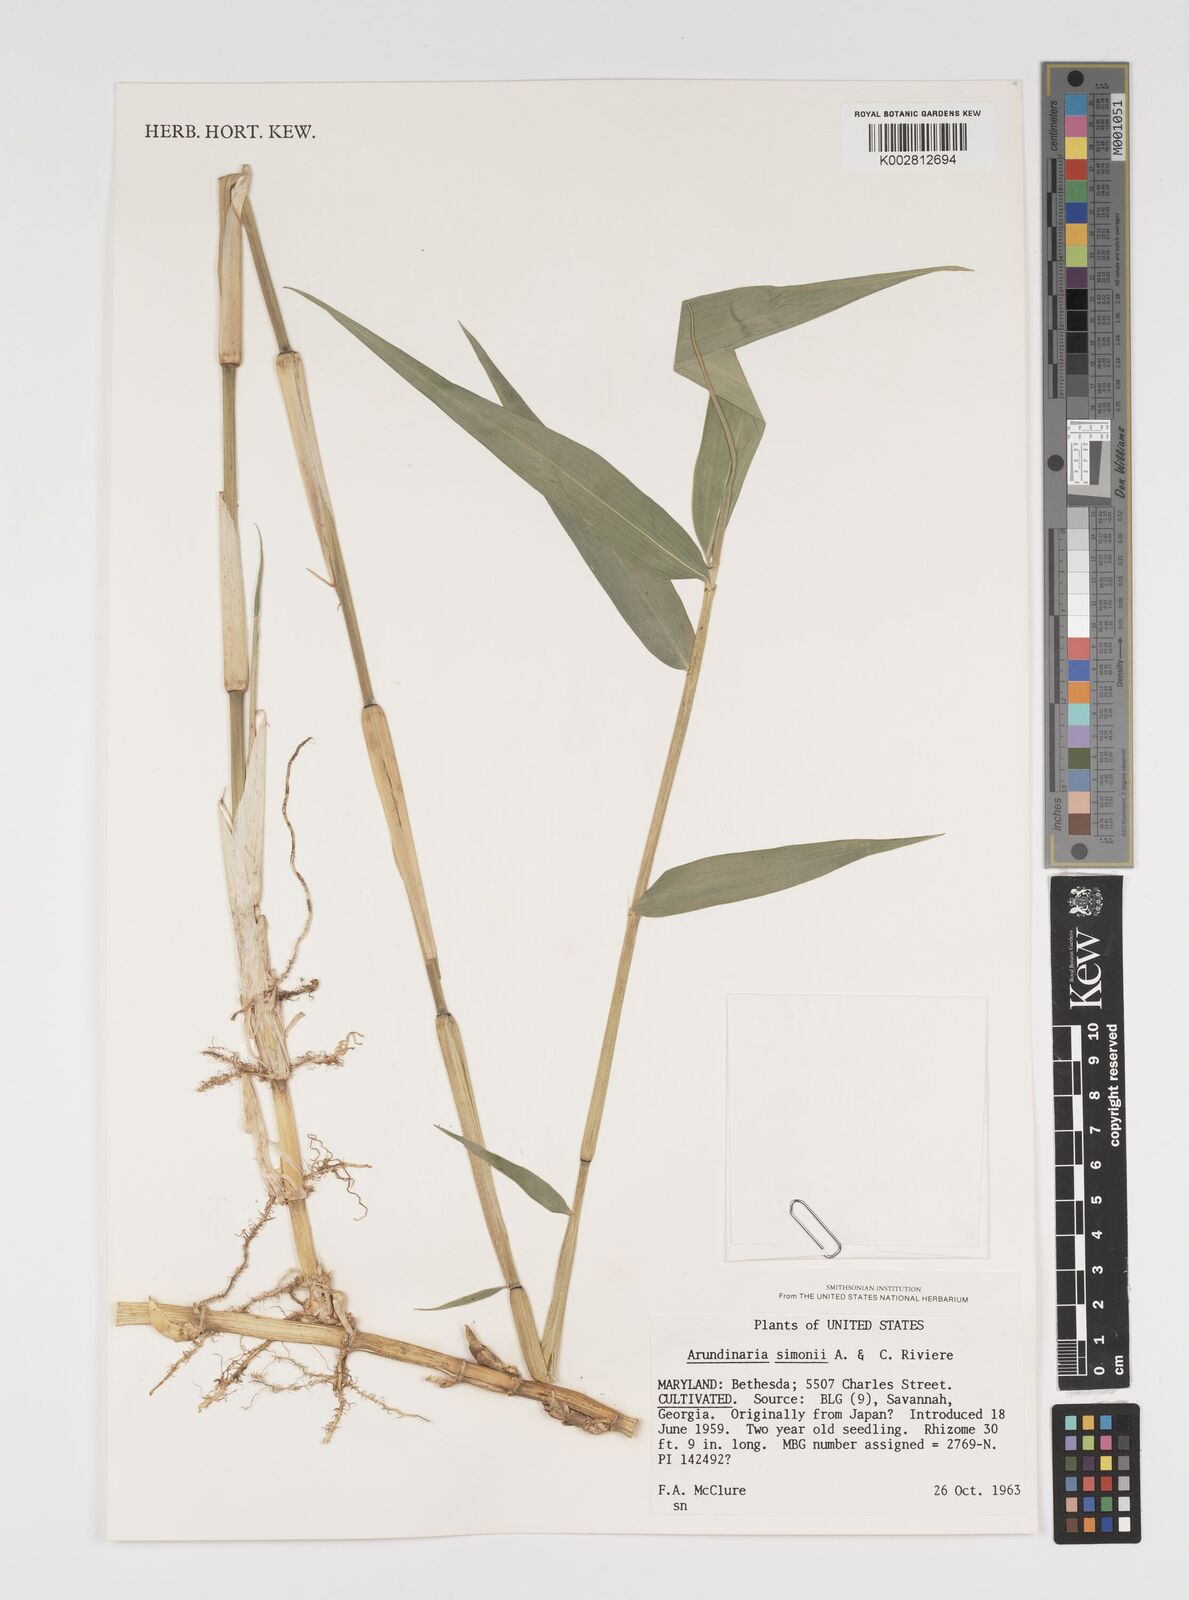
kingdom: Plantae
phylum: Tracheophyta
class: Liliopsida
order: Poales
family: Poaceae
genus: Arundinaria
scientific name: Arundinaria
